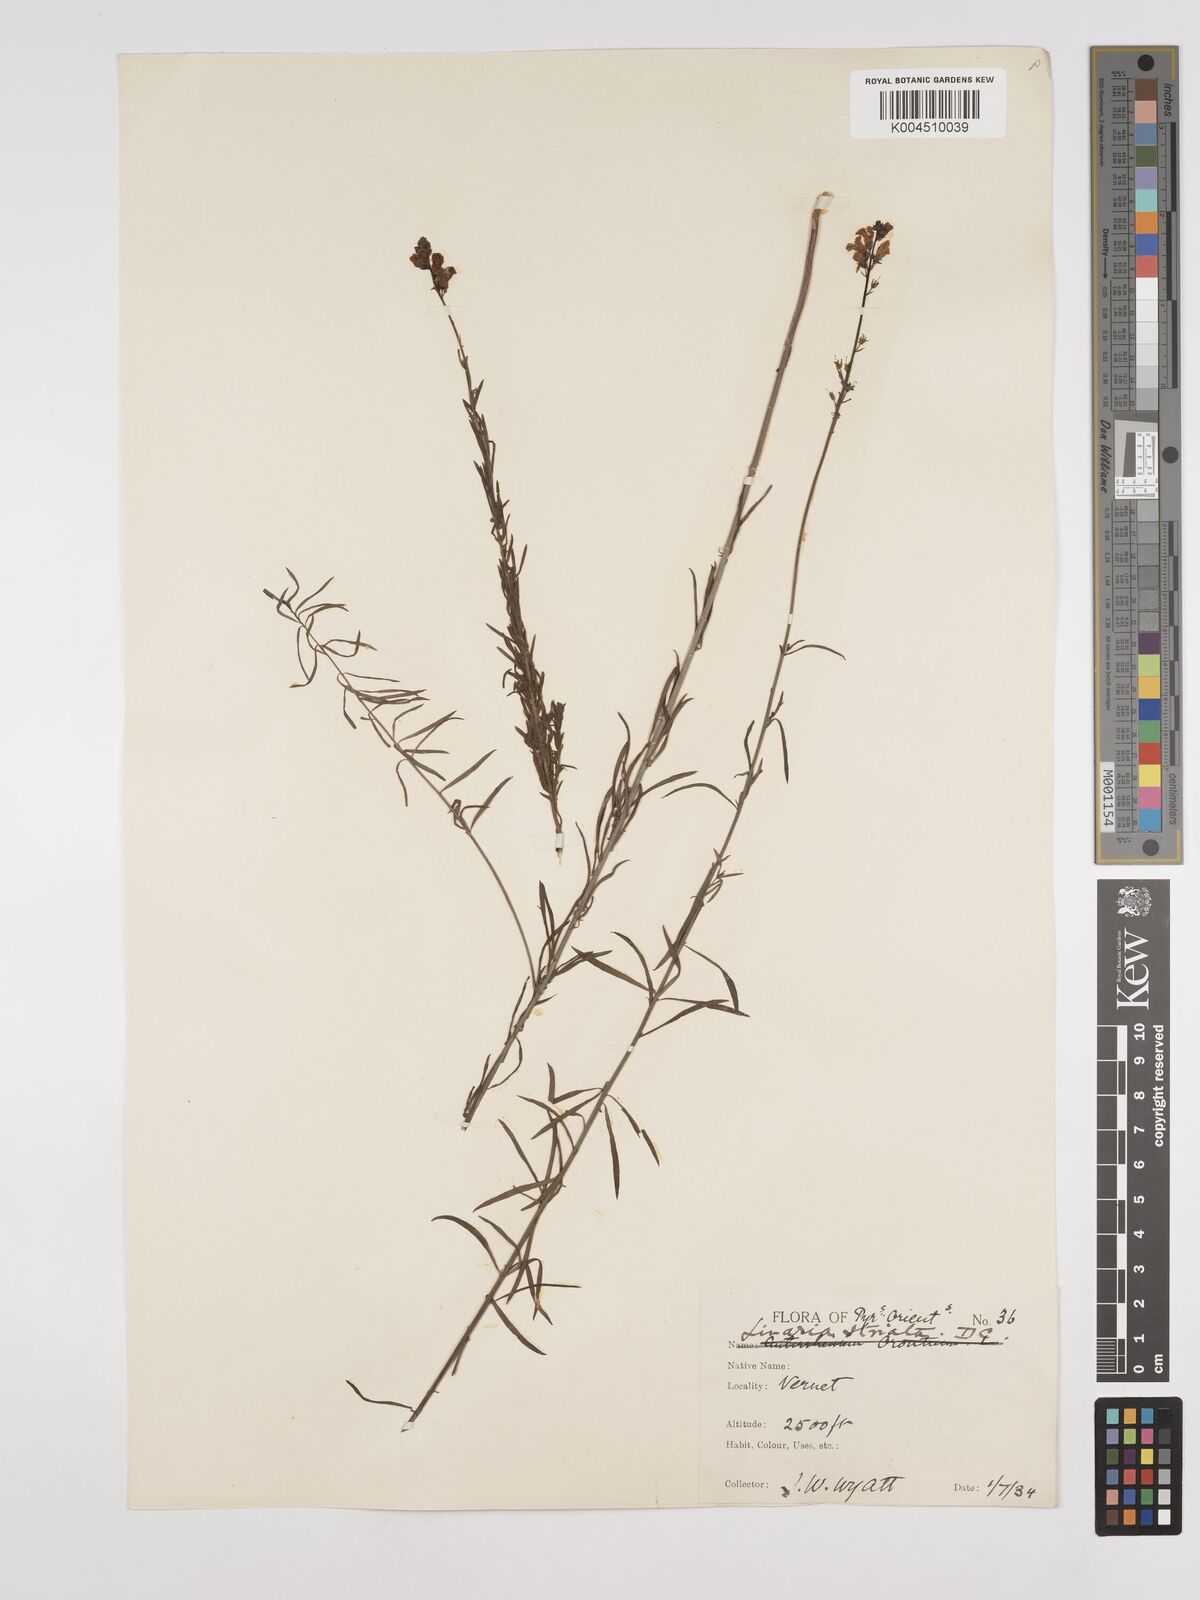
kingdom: Plantae
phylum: Tracheophyta
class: Magnoliopsida
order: Lamiales
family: Plantaginaceae
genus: Linaria
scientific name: Linaria repens
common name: Pale toadflax
